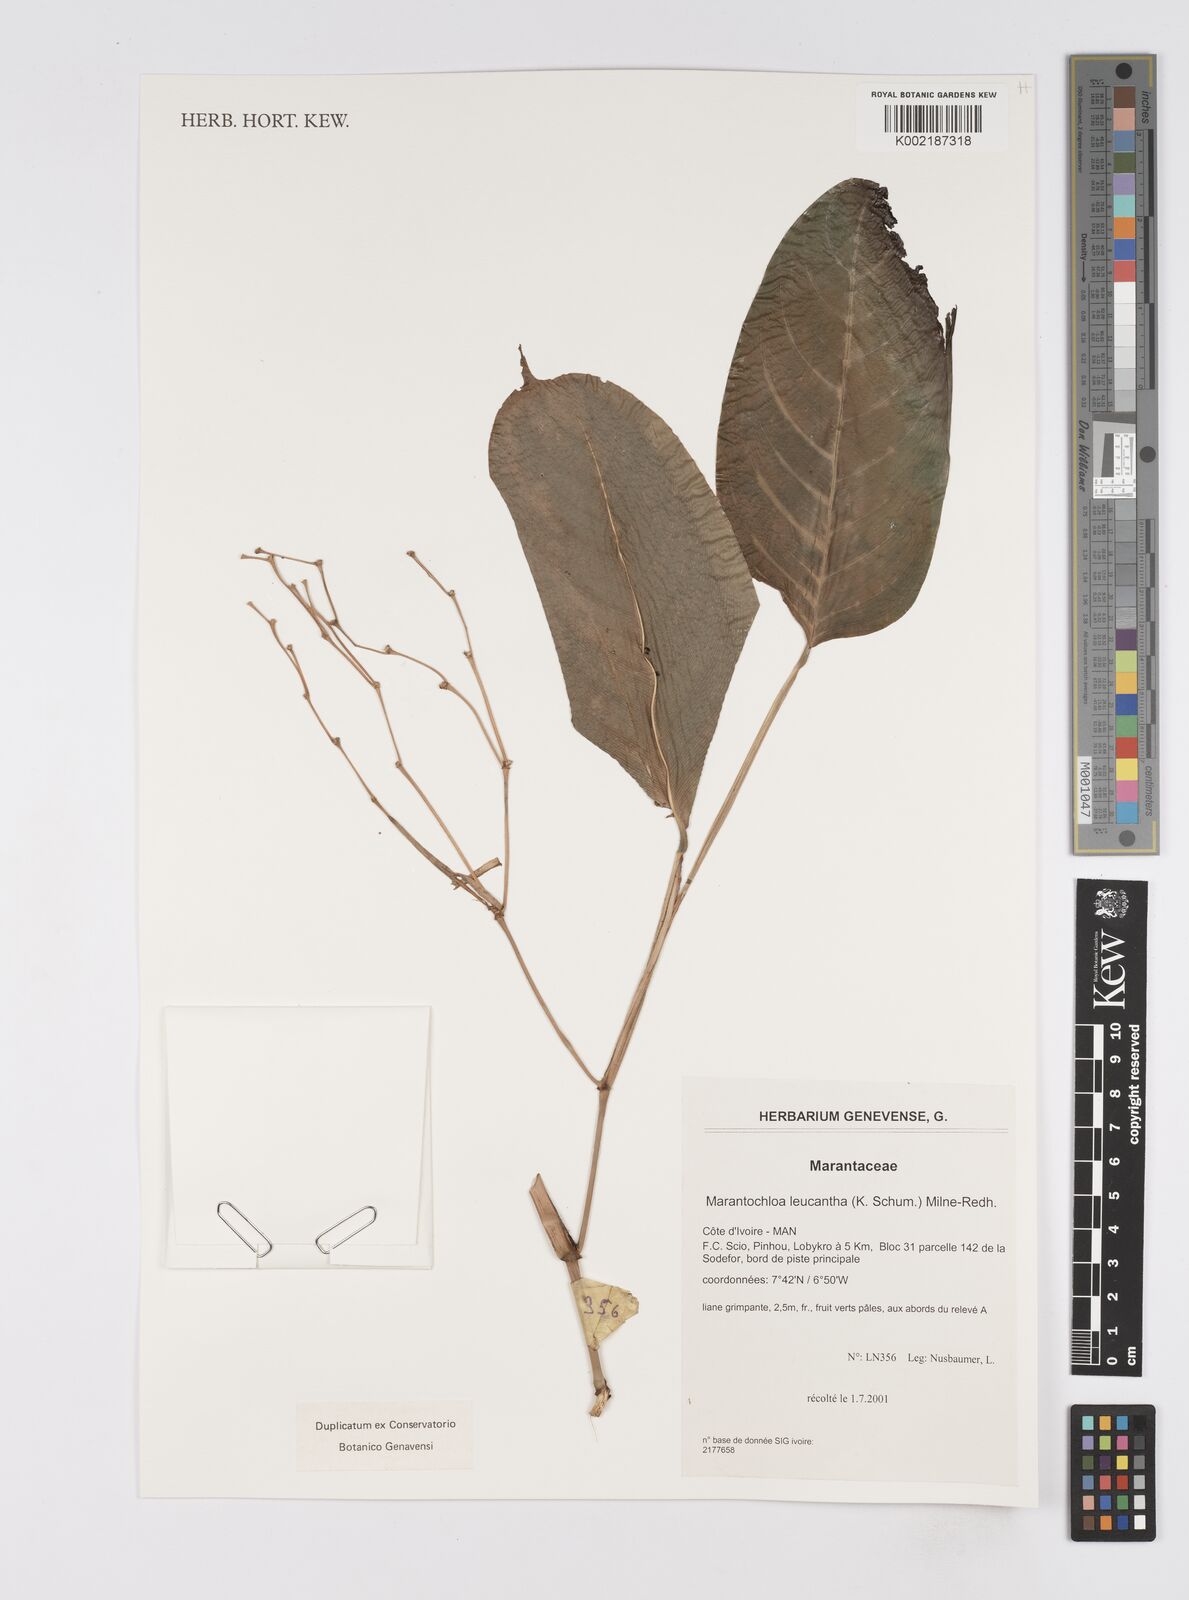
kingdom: Plantae
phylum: Tracheophyta
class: Liliopsida
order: Zingiberales
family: Marantaceae
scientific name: Marantaceae
